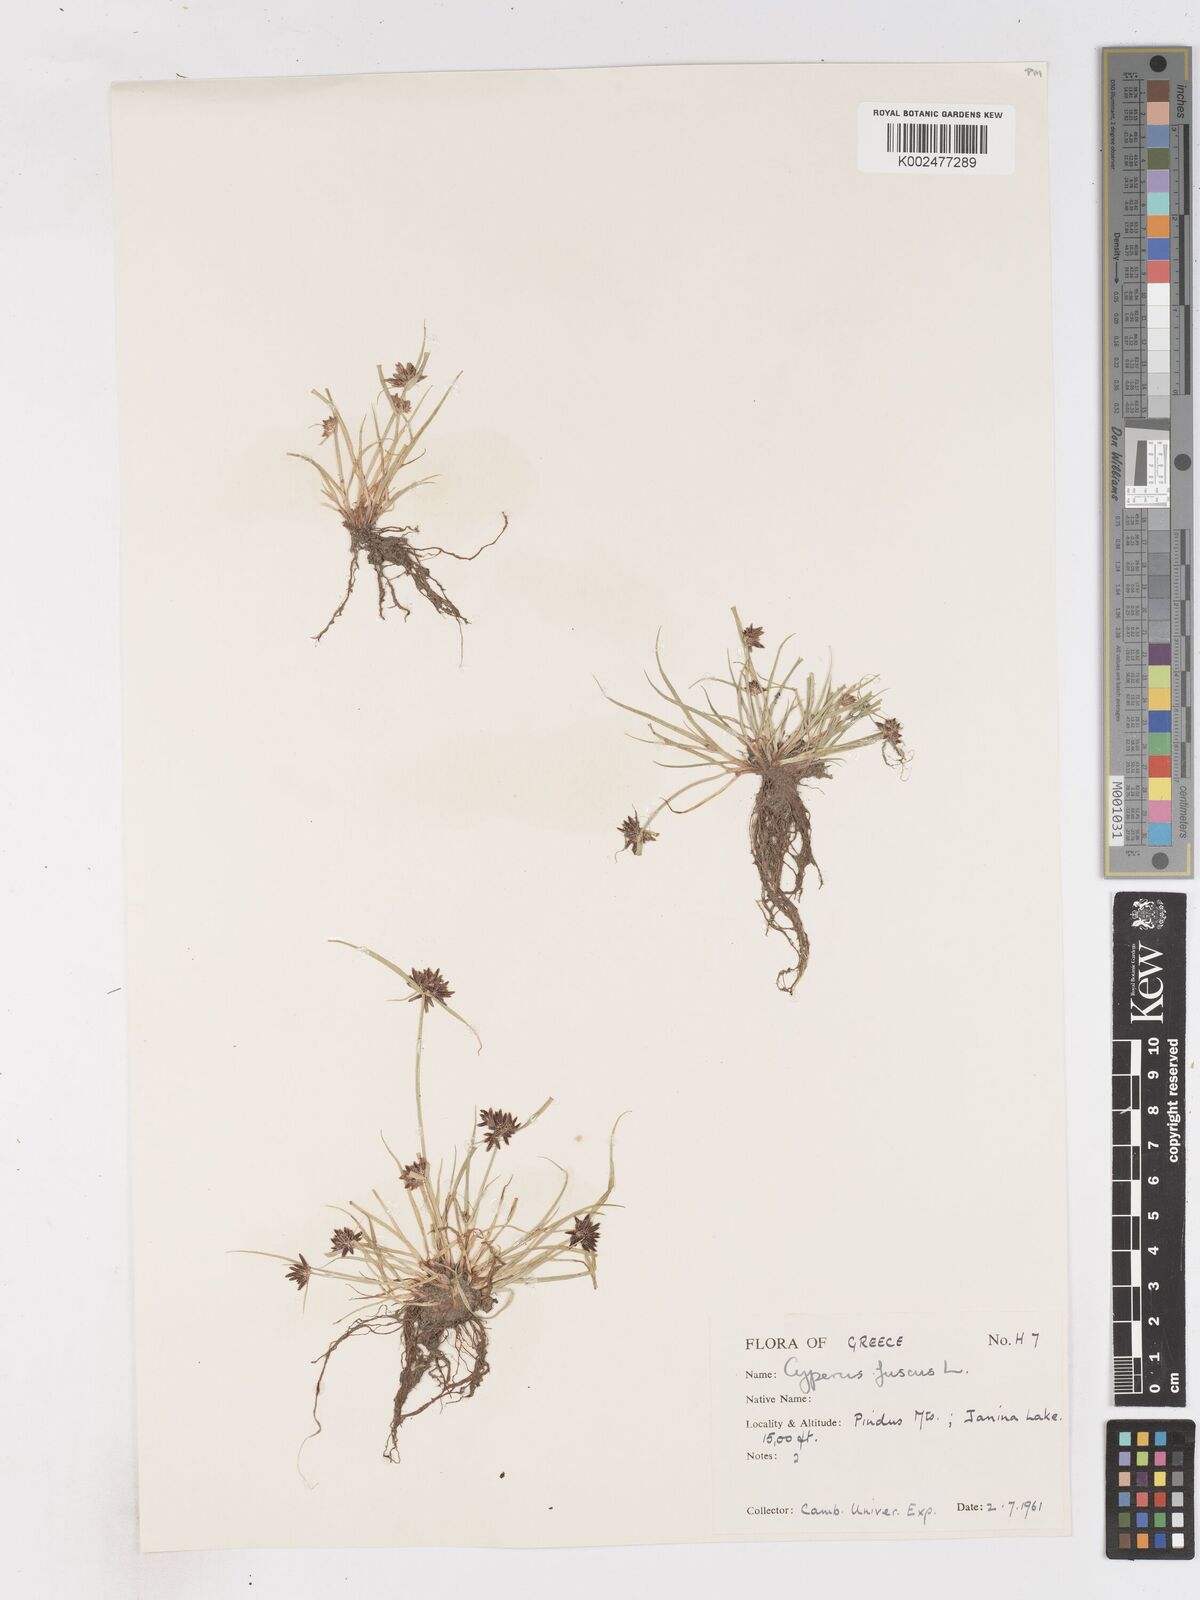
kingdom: Plantae
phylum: Tracheophyta
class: Liliopsida
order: Poales
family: Cyperaceae
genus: Cyperus
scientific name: Cyperus fuscus
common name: Brown galingale
